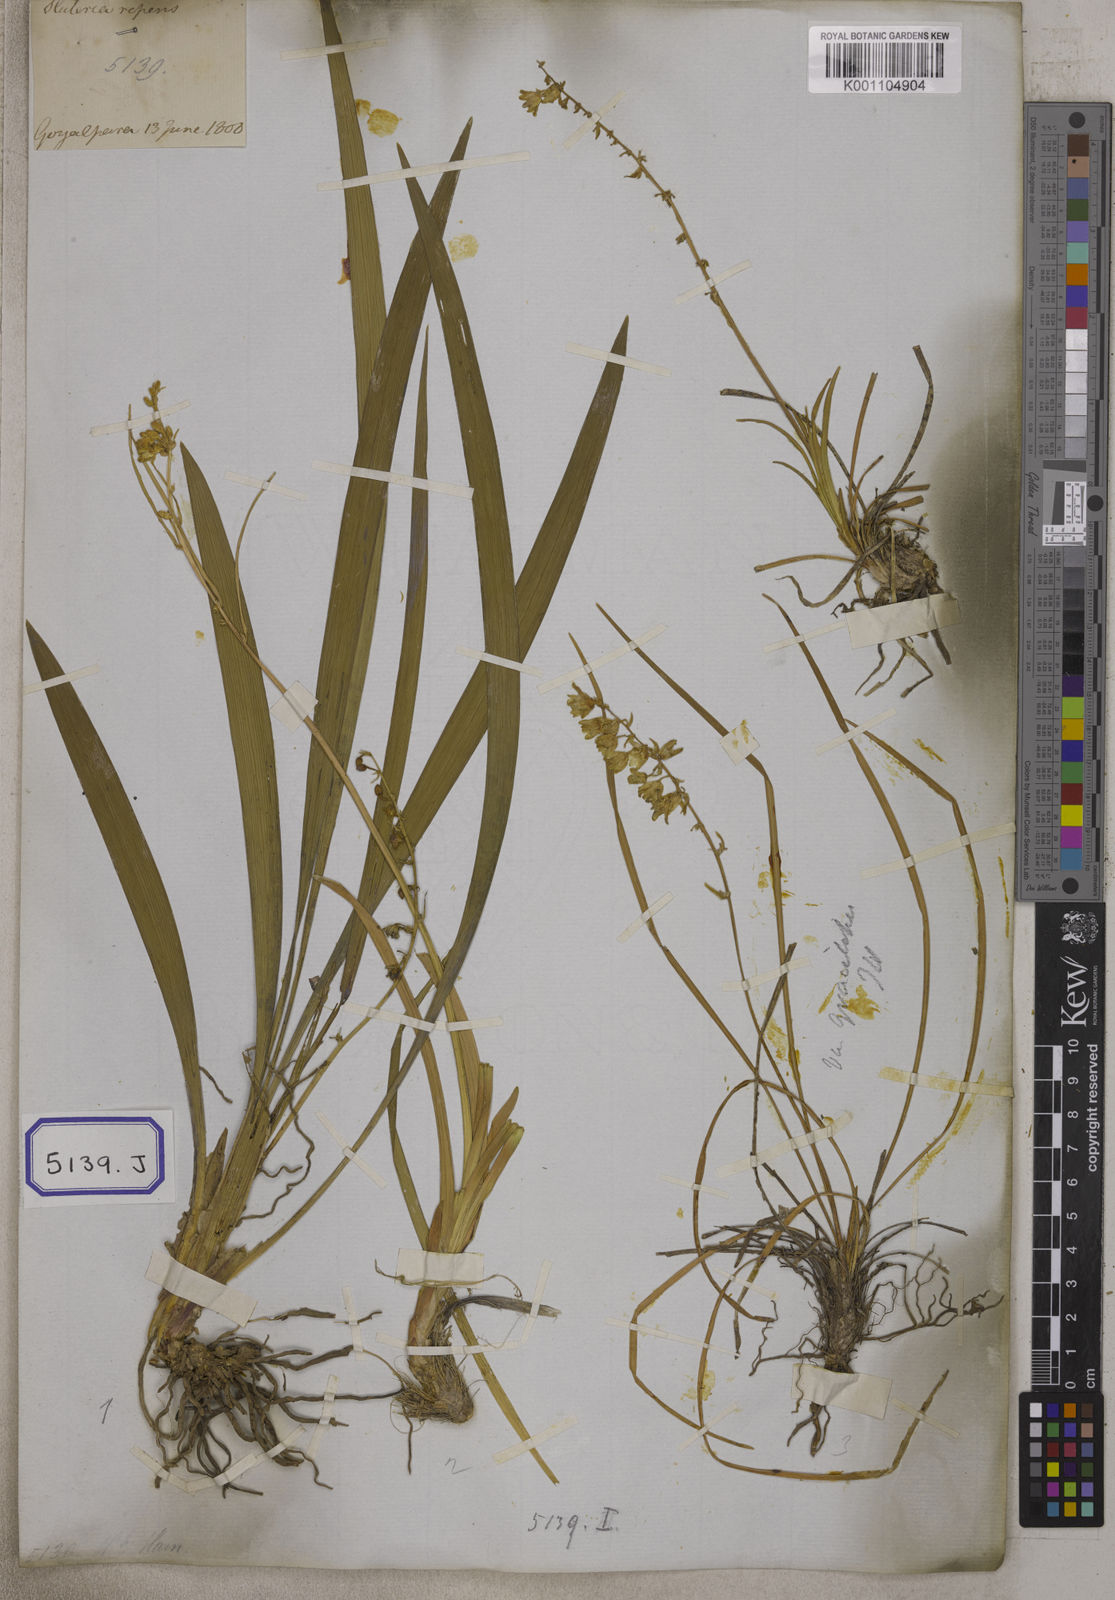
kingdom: Plantae
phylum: Tracheophyta
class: Liliopsida
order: Asparagales
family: Asparagaceae
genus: Ophiopogon
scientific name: Ophiopogon
